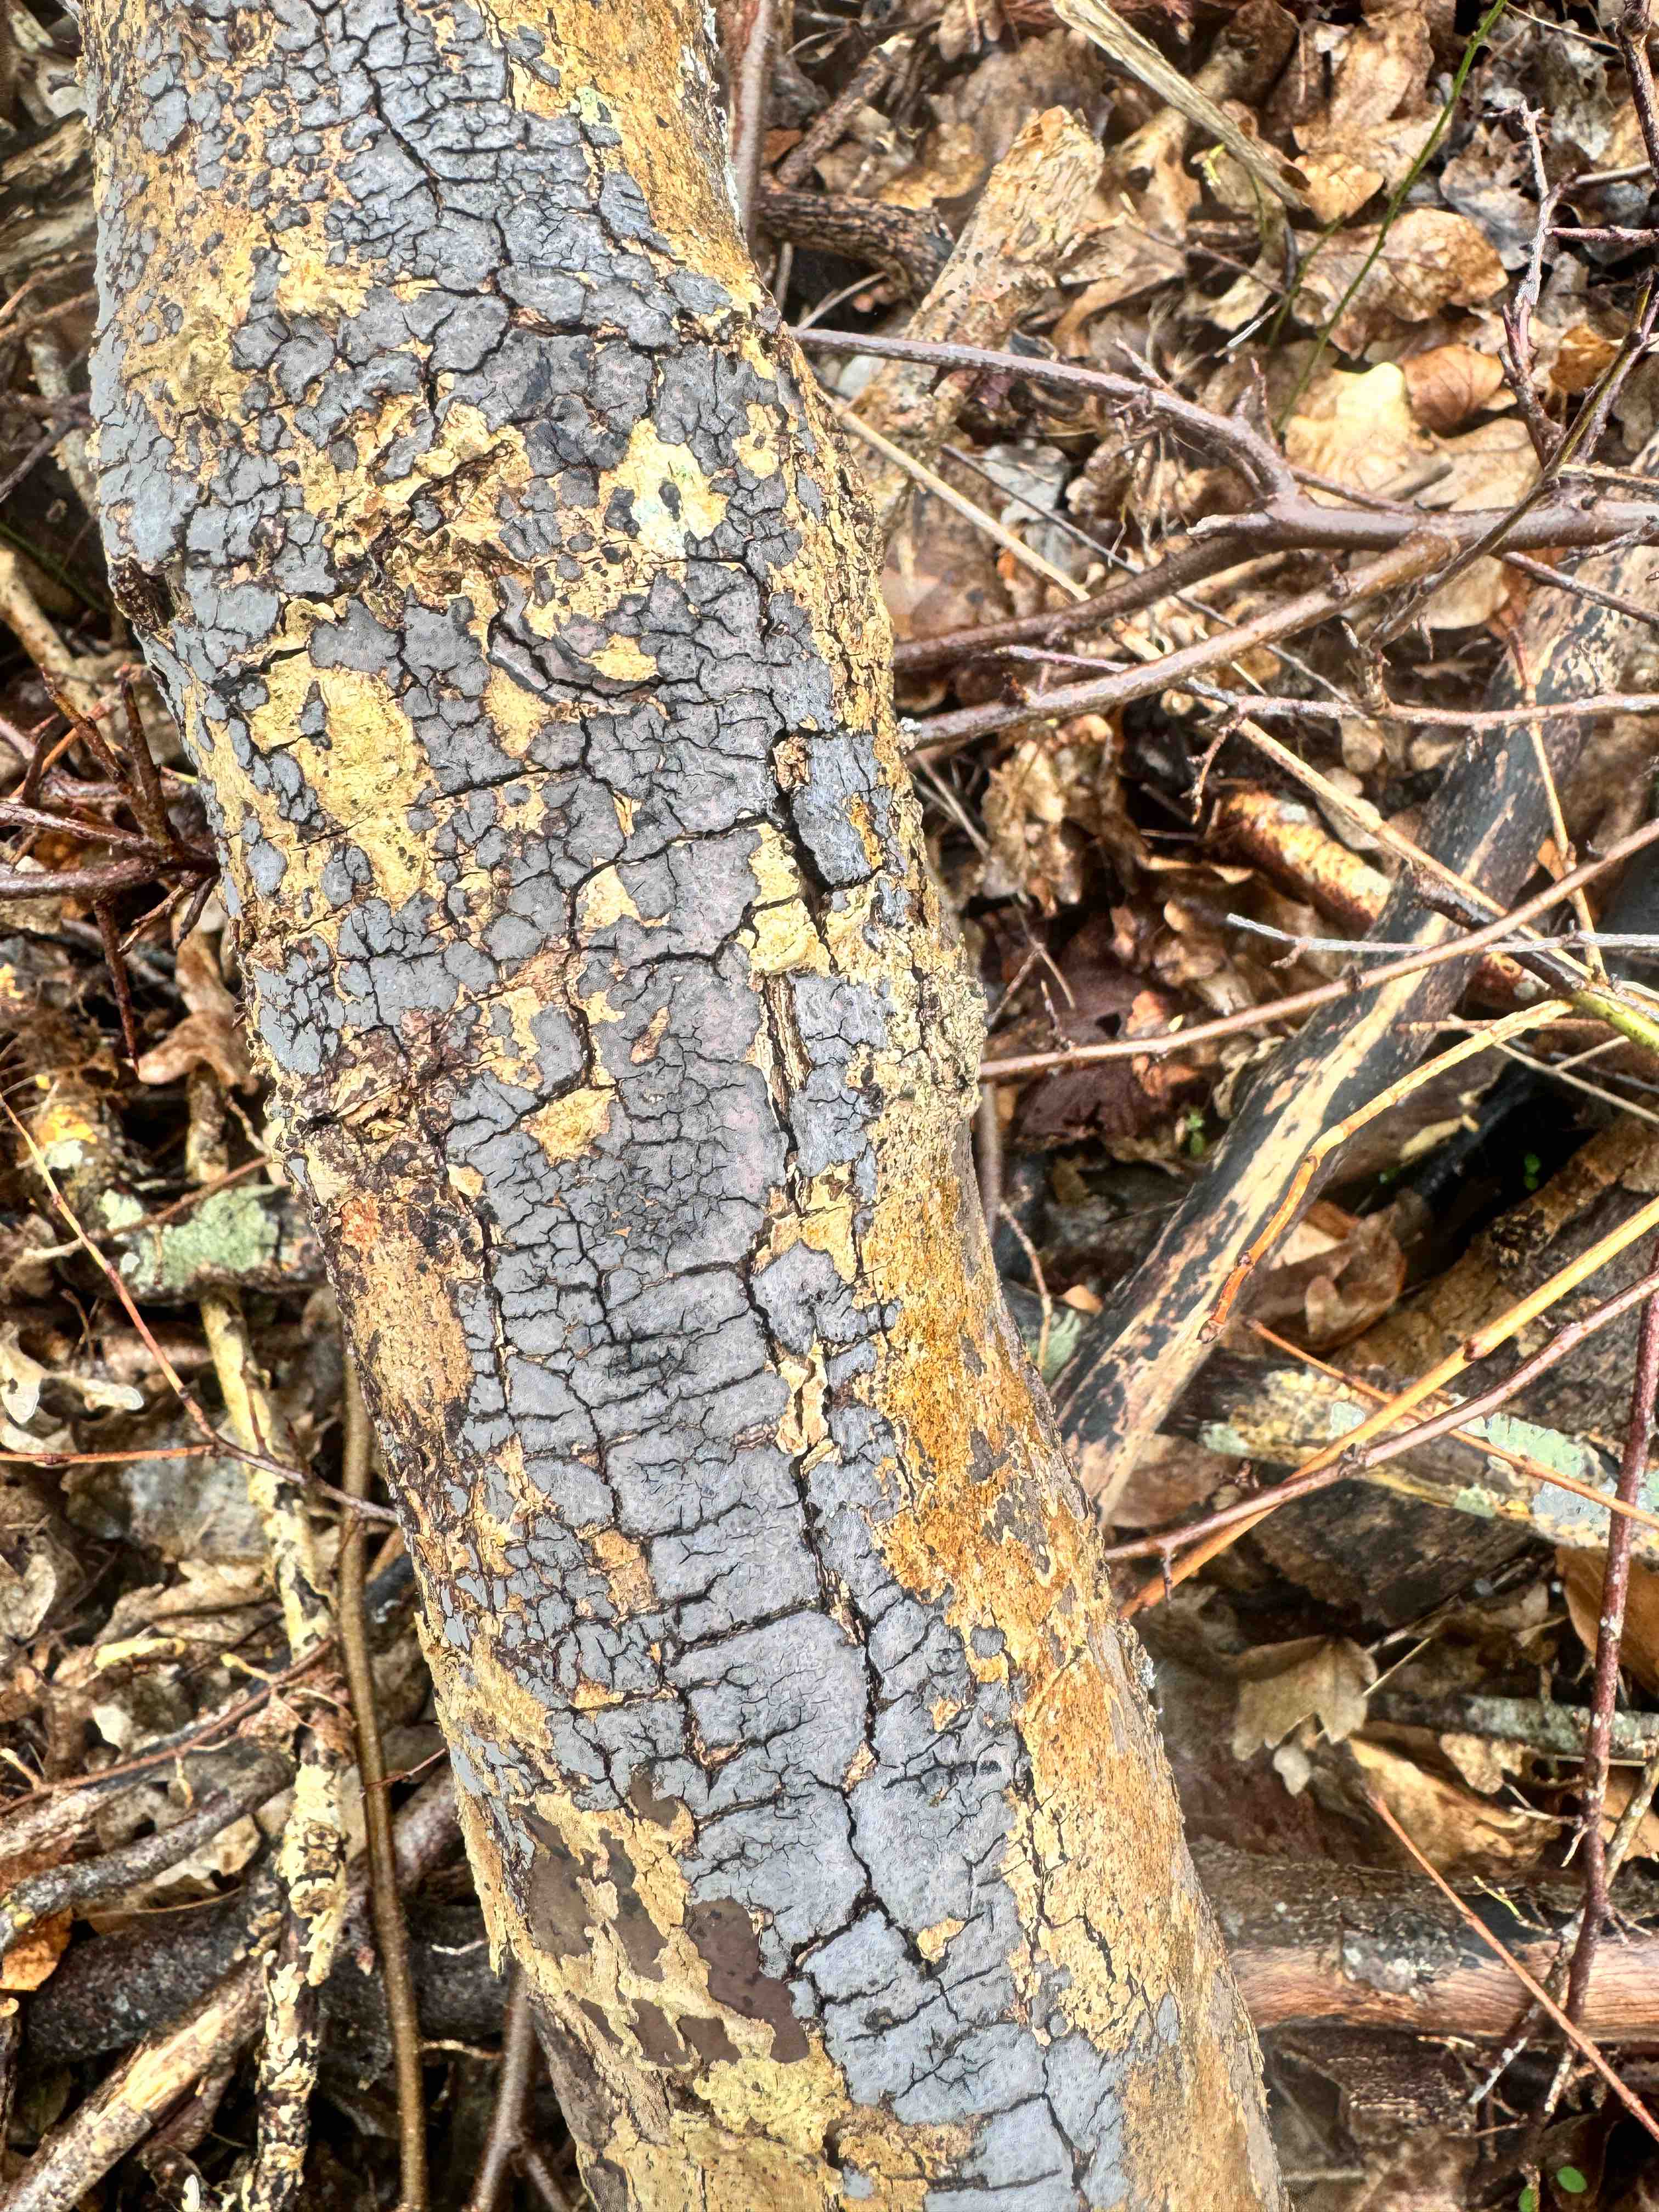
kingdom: Fungi
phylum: Basidiomycota
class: Agaricomycetes
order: Russulales
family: Peniophoraceae
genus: Peniophora
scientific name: Peniophora limitata
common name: mørkrandet voksskind
